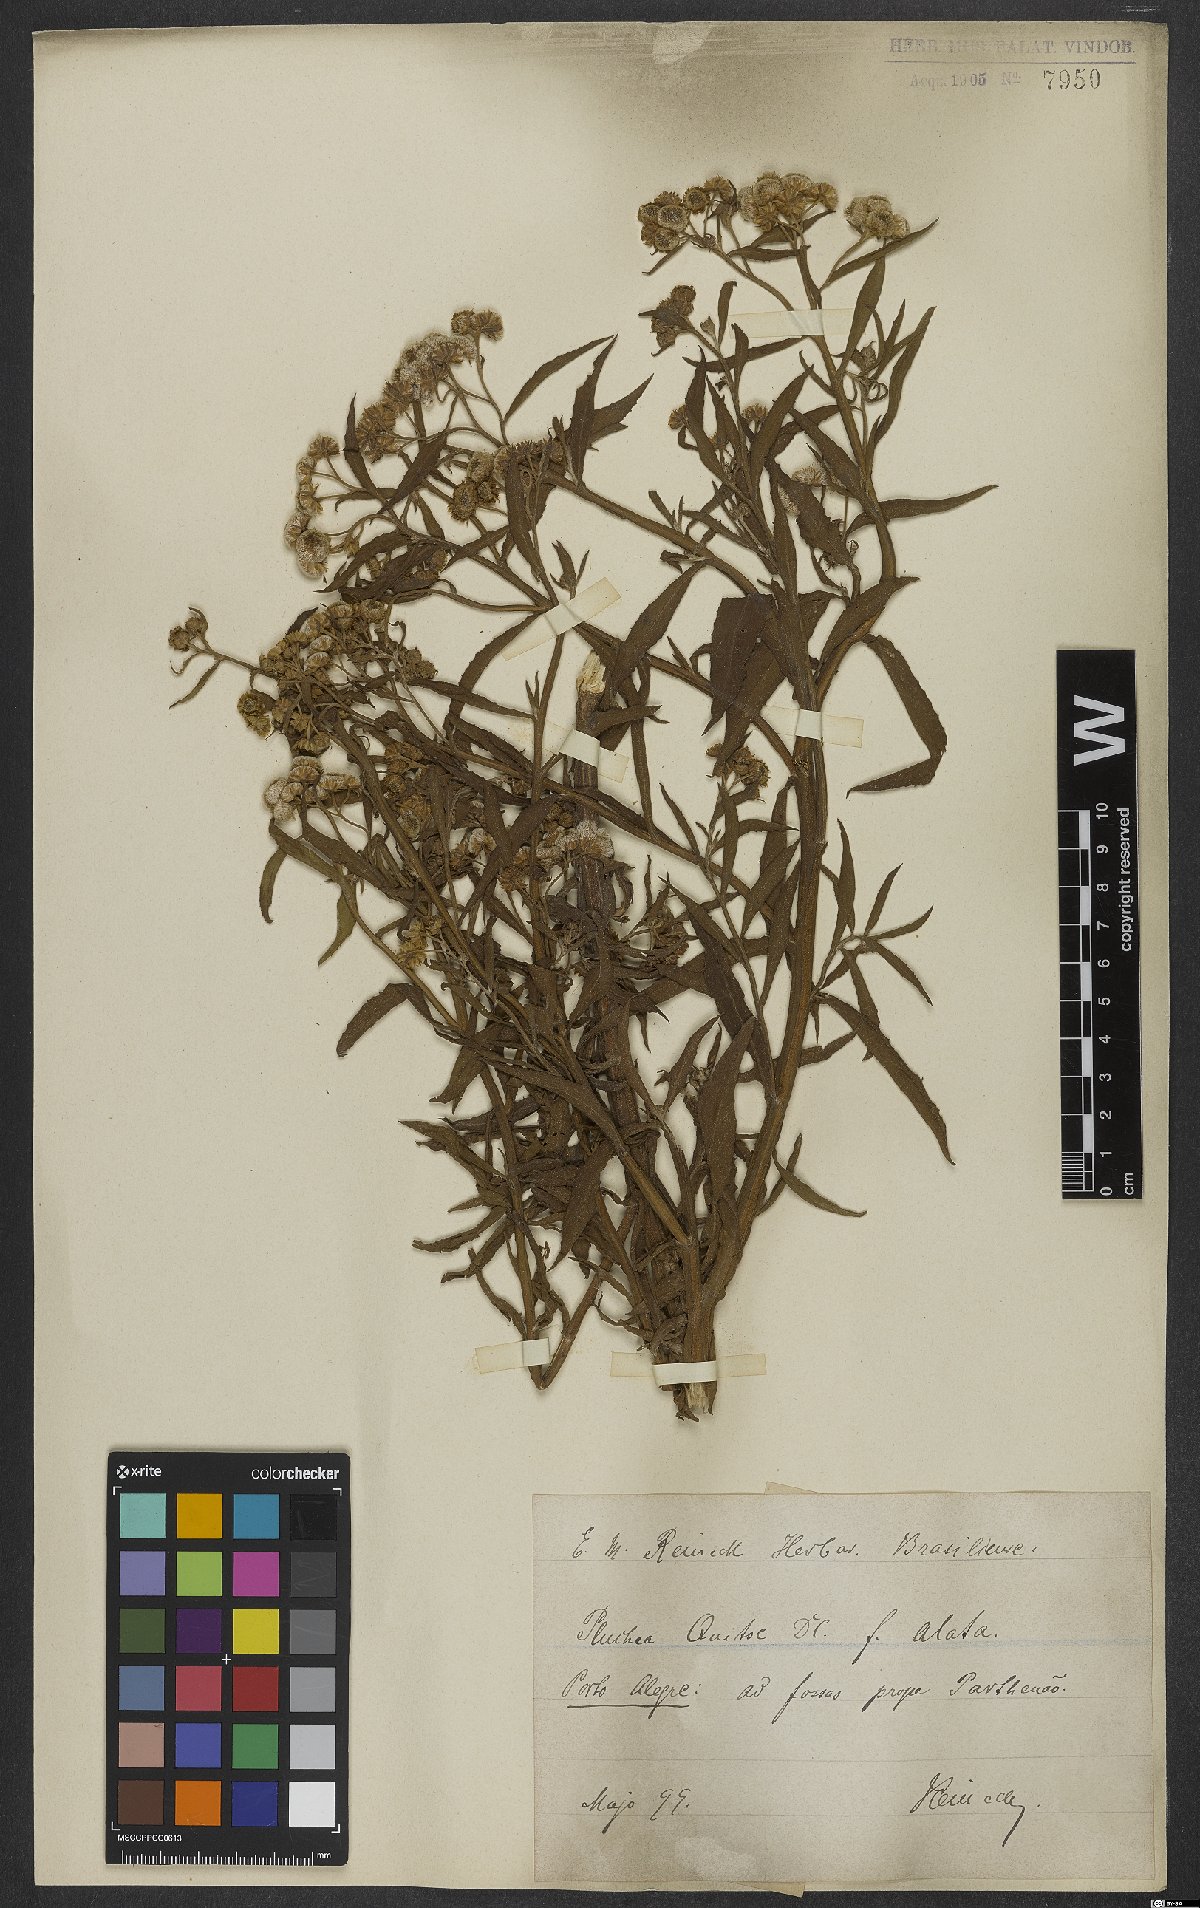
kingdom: Plantae
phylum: Tracheophyta
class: Magnoliopsida
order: Asterales
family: Asteraceae
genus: Pluchea
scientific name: Pluchea sagittalis
